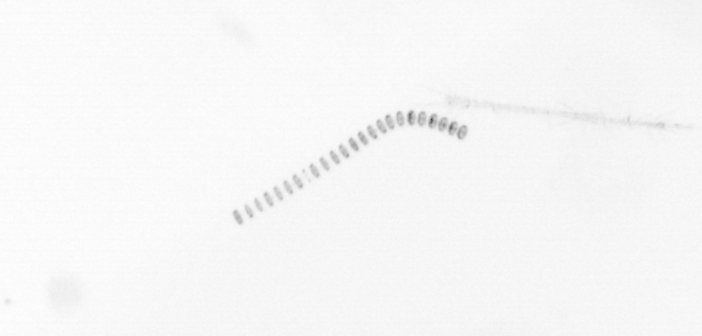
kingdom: Chromista
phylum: Ochrophyta
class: Bacillariophyceae
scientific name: Bacillariophyceae
